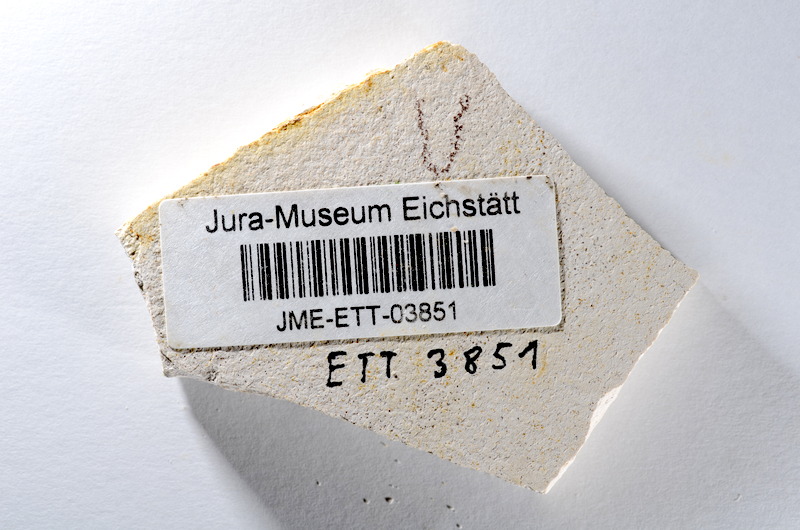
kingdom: Animalia
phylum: Chordata
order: Salmoniformes
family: Orthogonikleithridae
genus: Orthogonikleithrus
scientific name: Orthogonikleithrus hoelli
